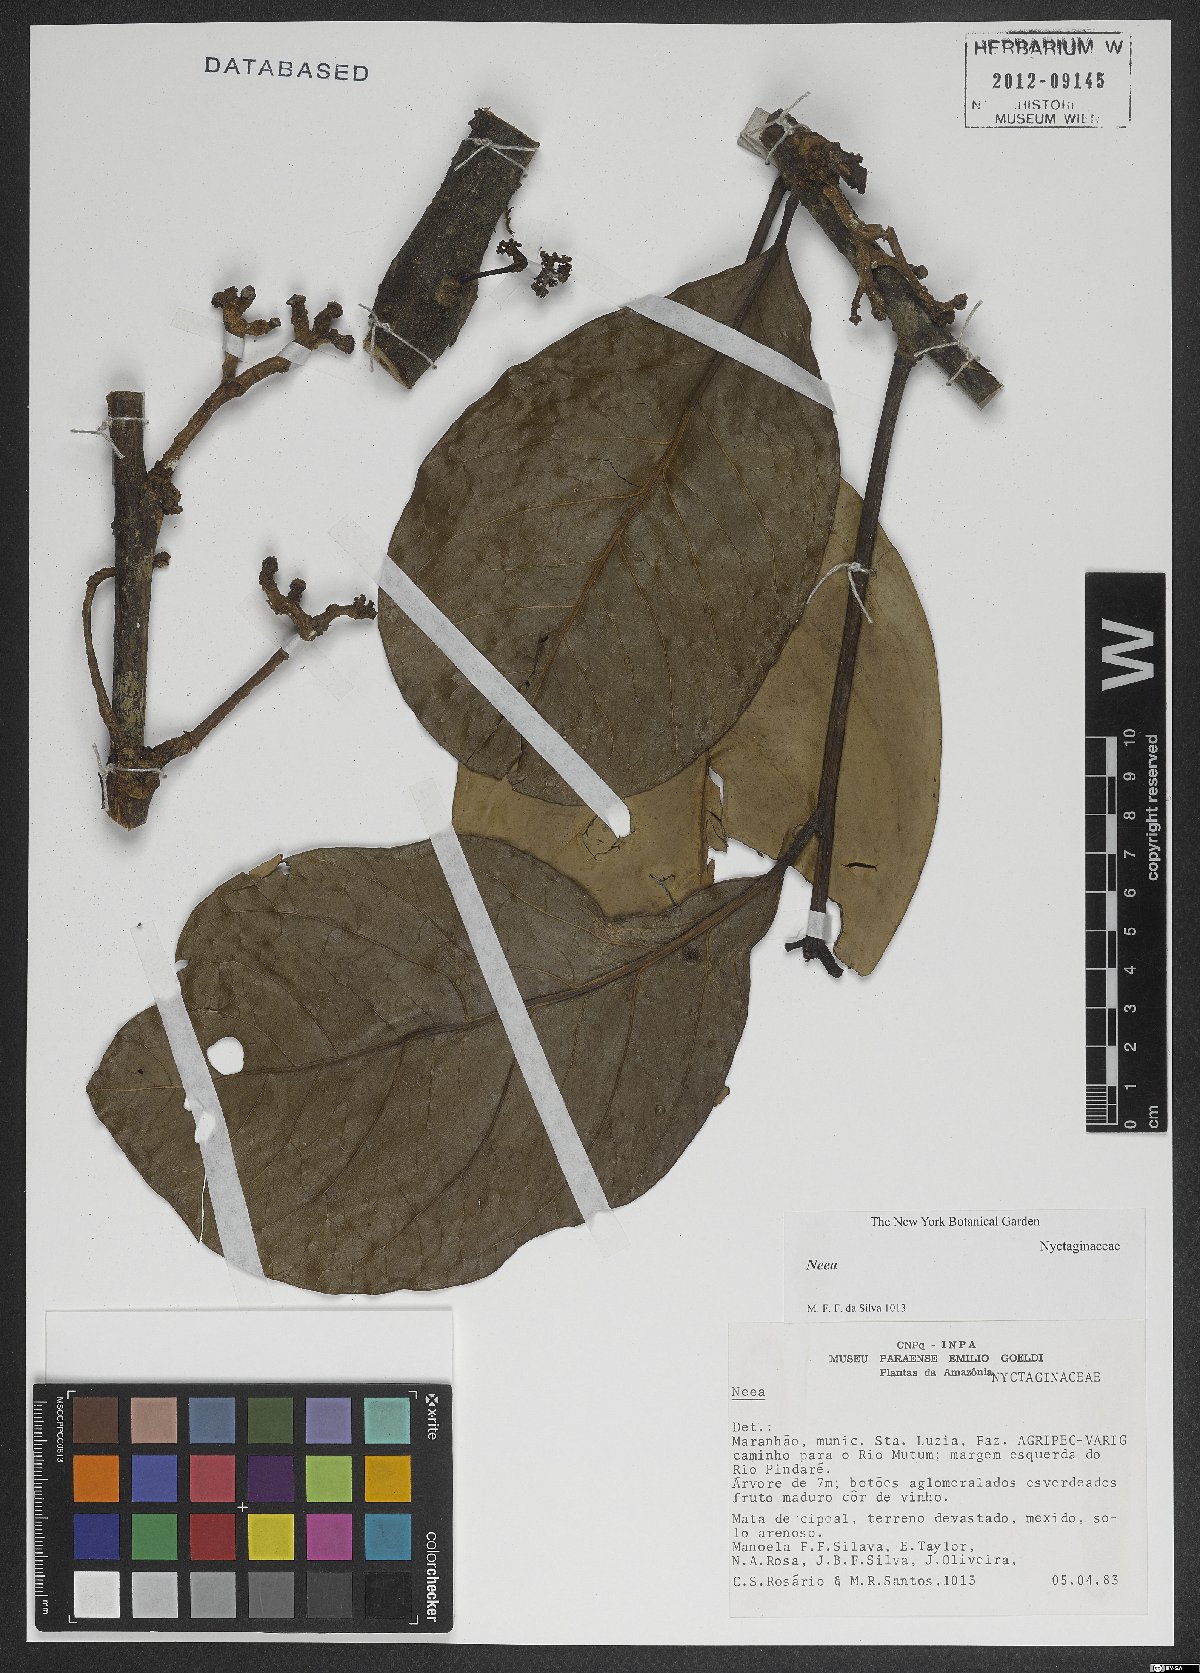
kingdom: Plantae
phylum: Tracheophyta
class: Magnoliopsida
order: Caryophyllales
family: Nyctaginaceae
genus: Neea
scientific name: Neea
